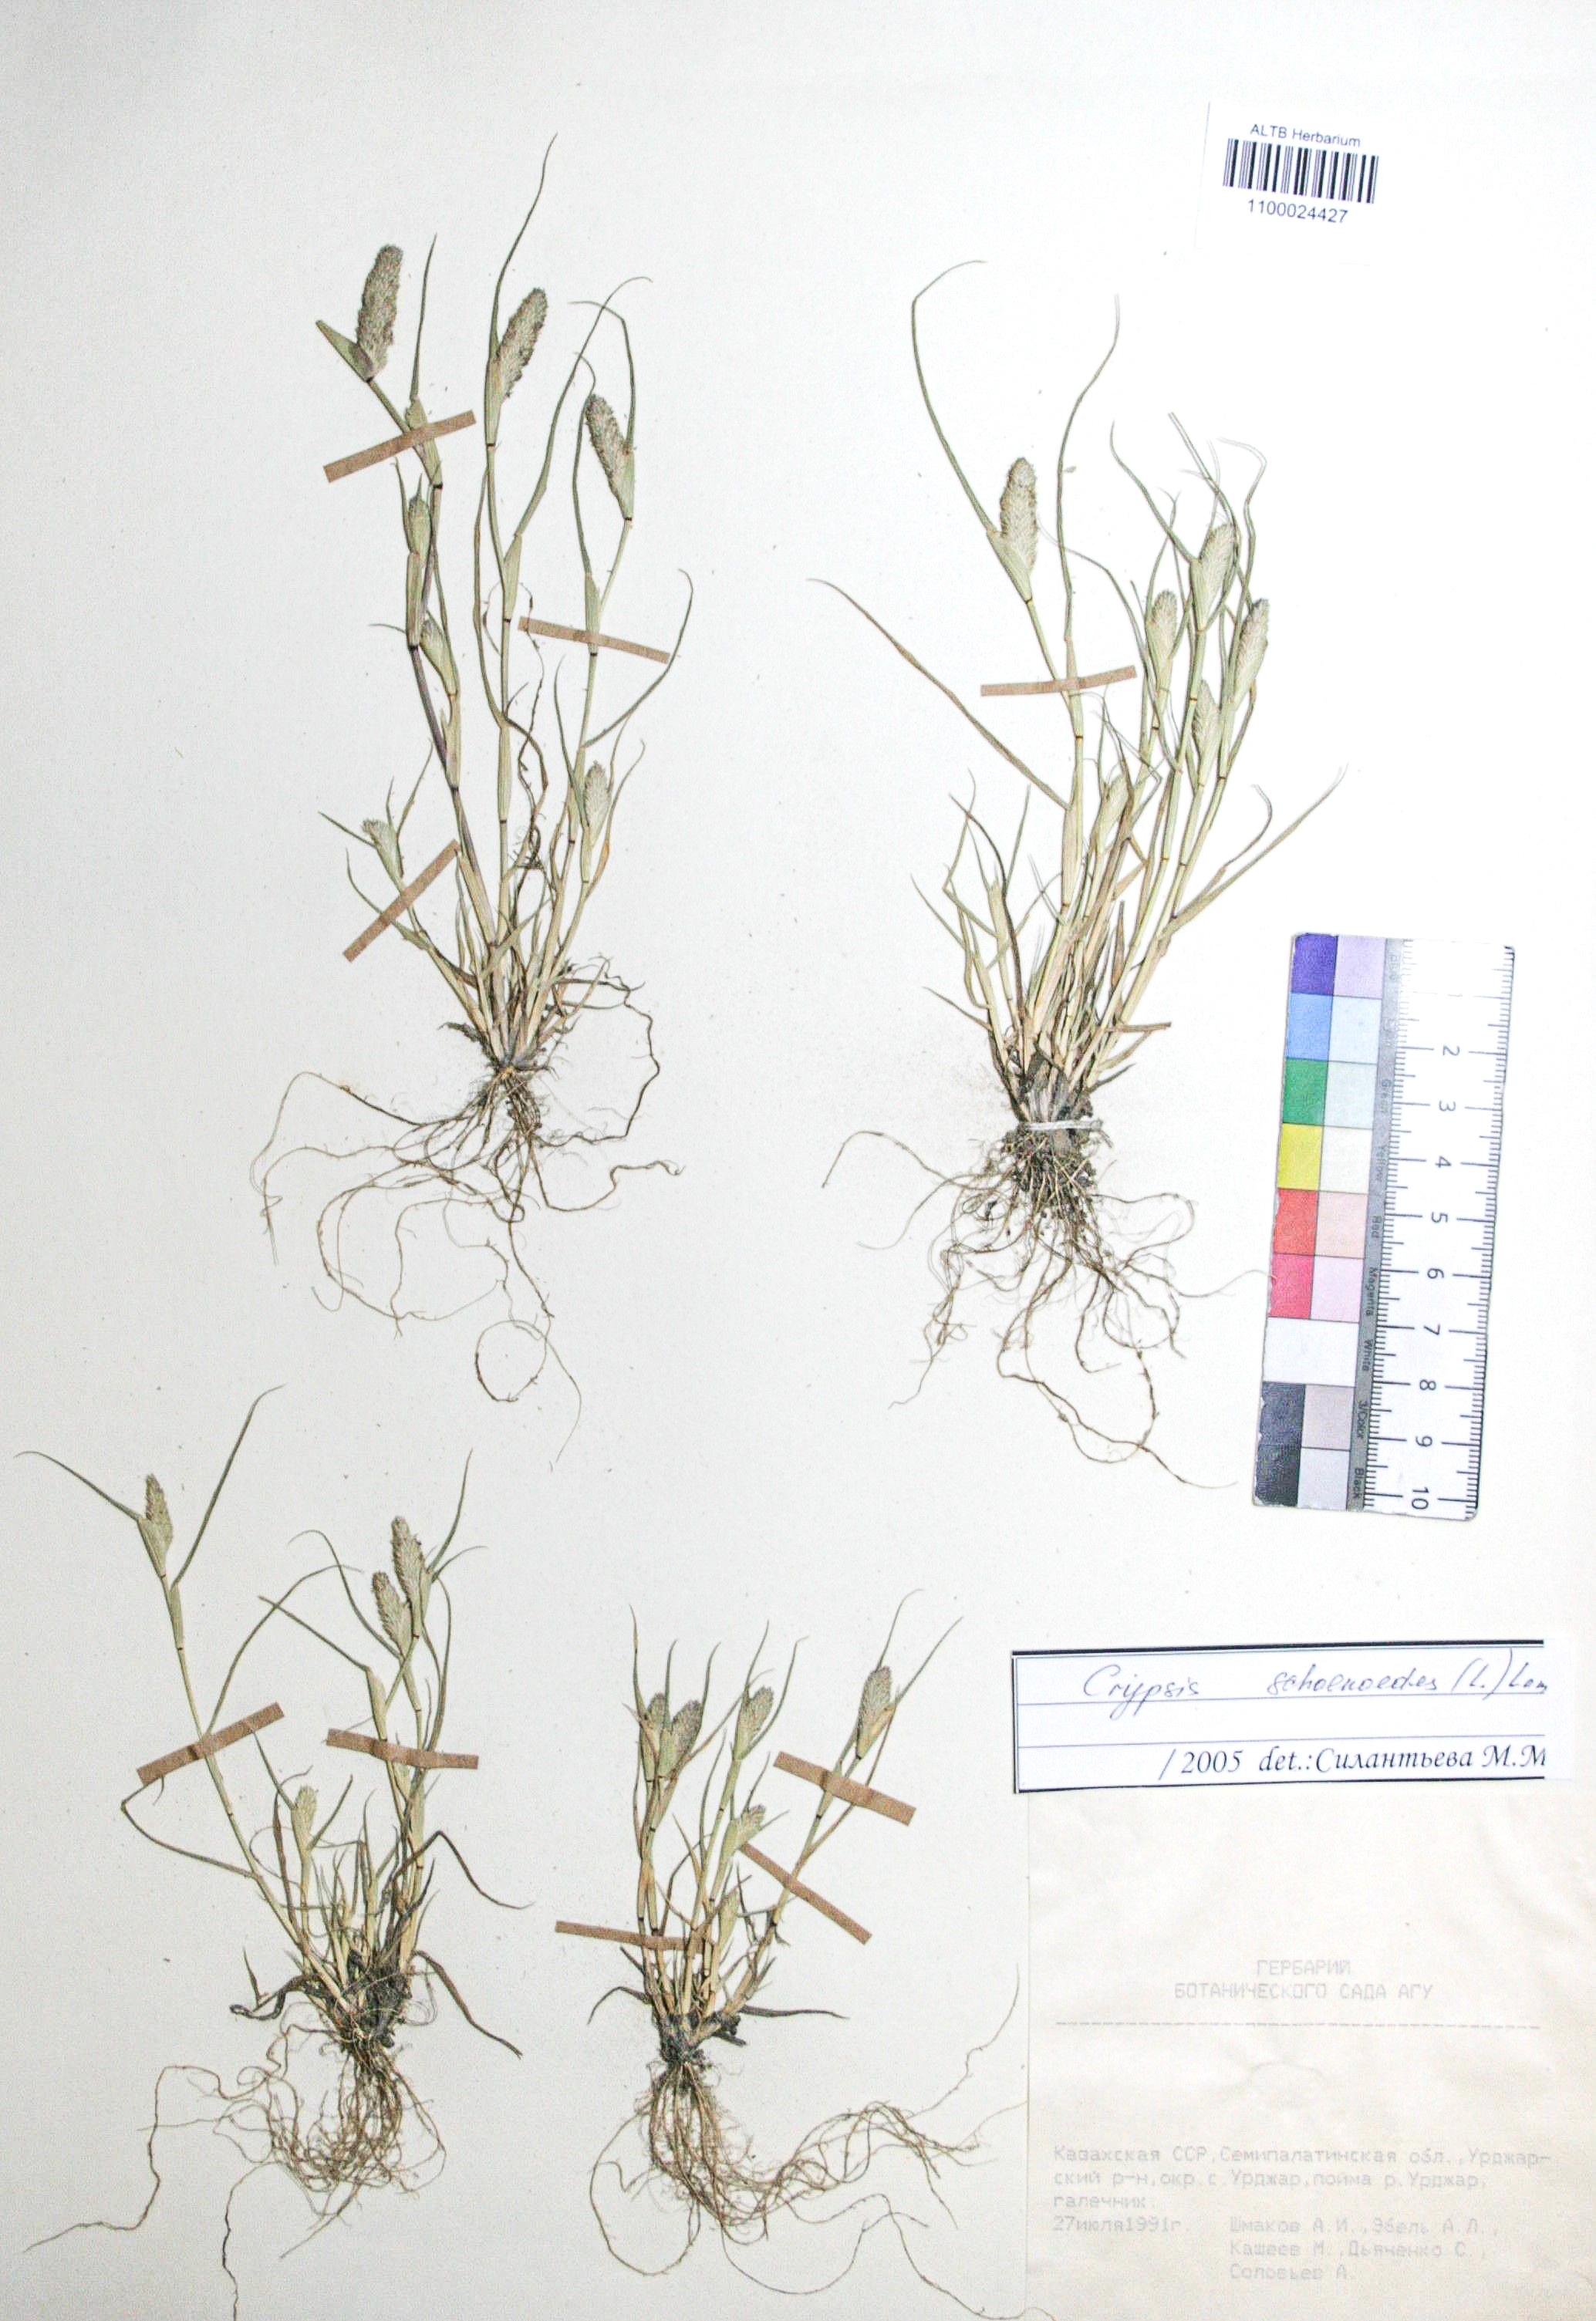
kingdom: Plantae
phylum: Tracheophyta
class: Liliopsida
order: Poales
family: Poaceae
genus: Sporobolus
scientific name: Sporobolus schoenoides
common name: Rush-like timothy
